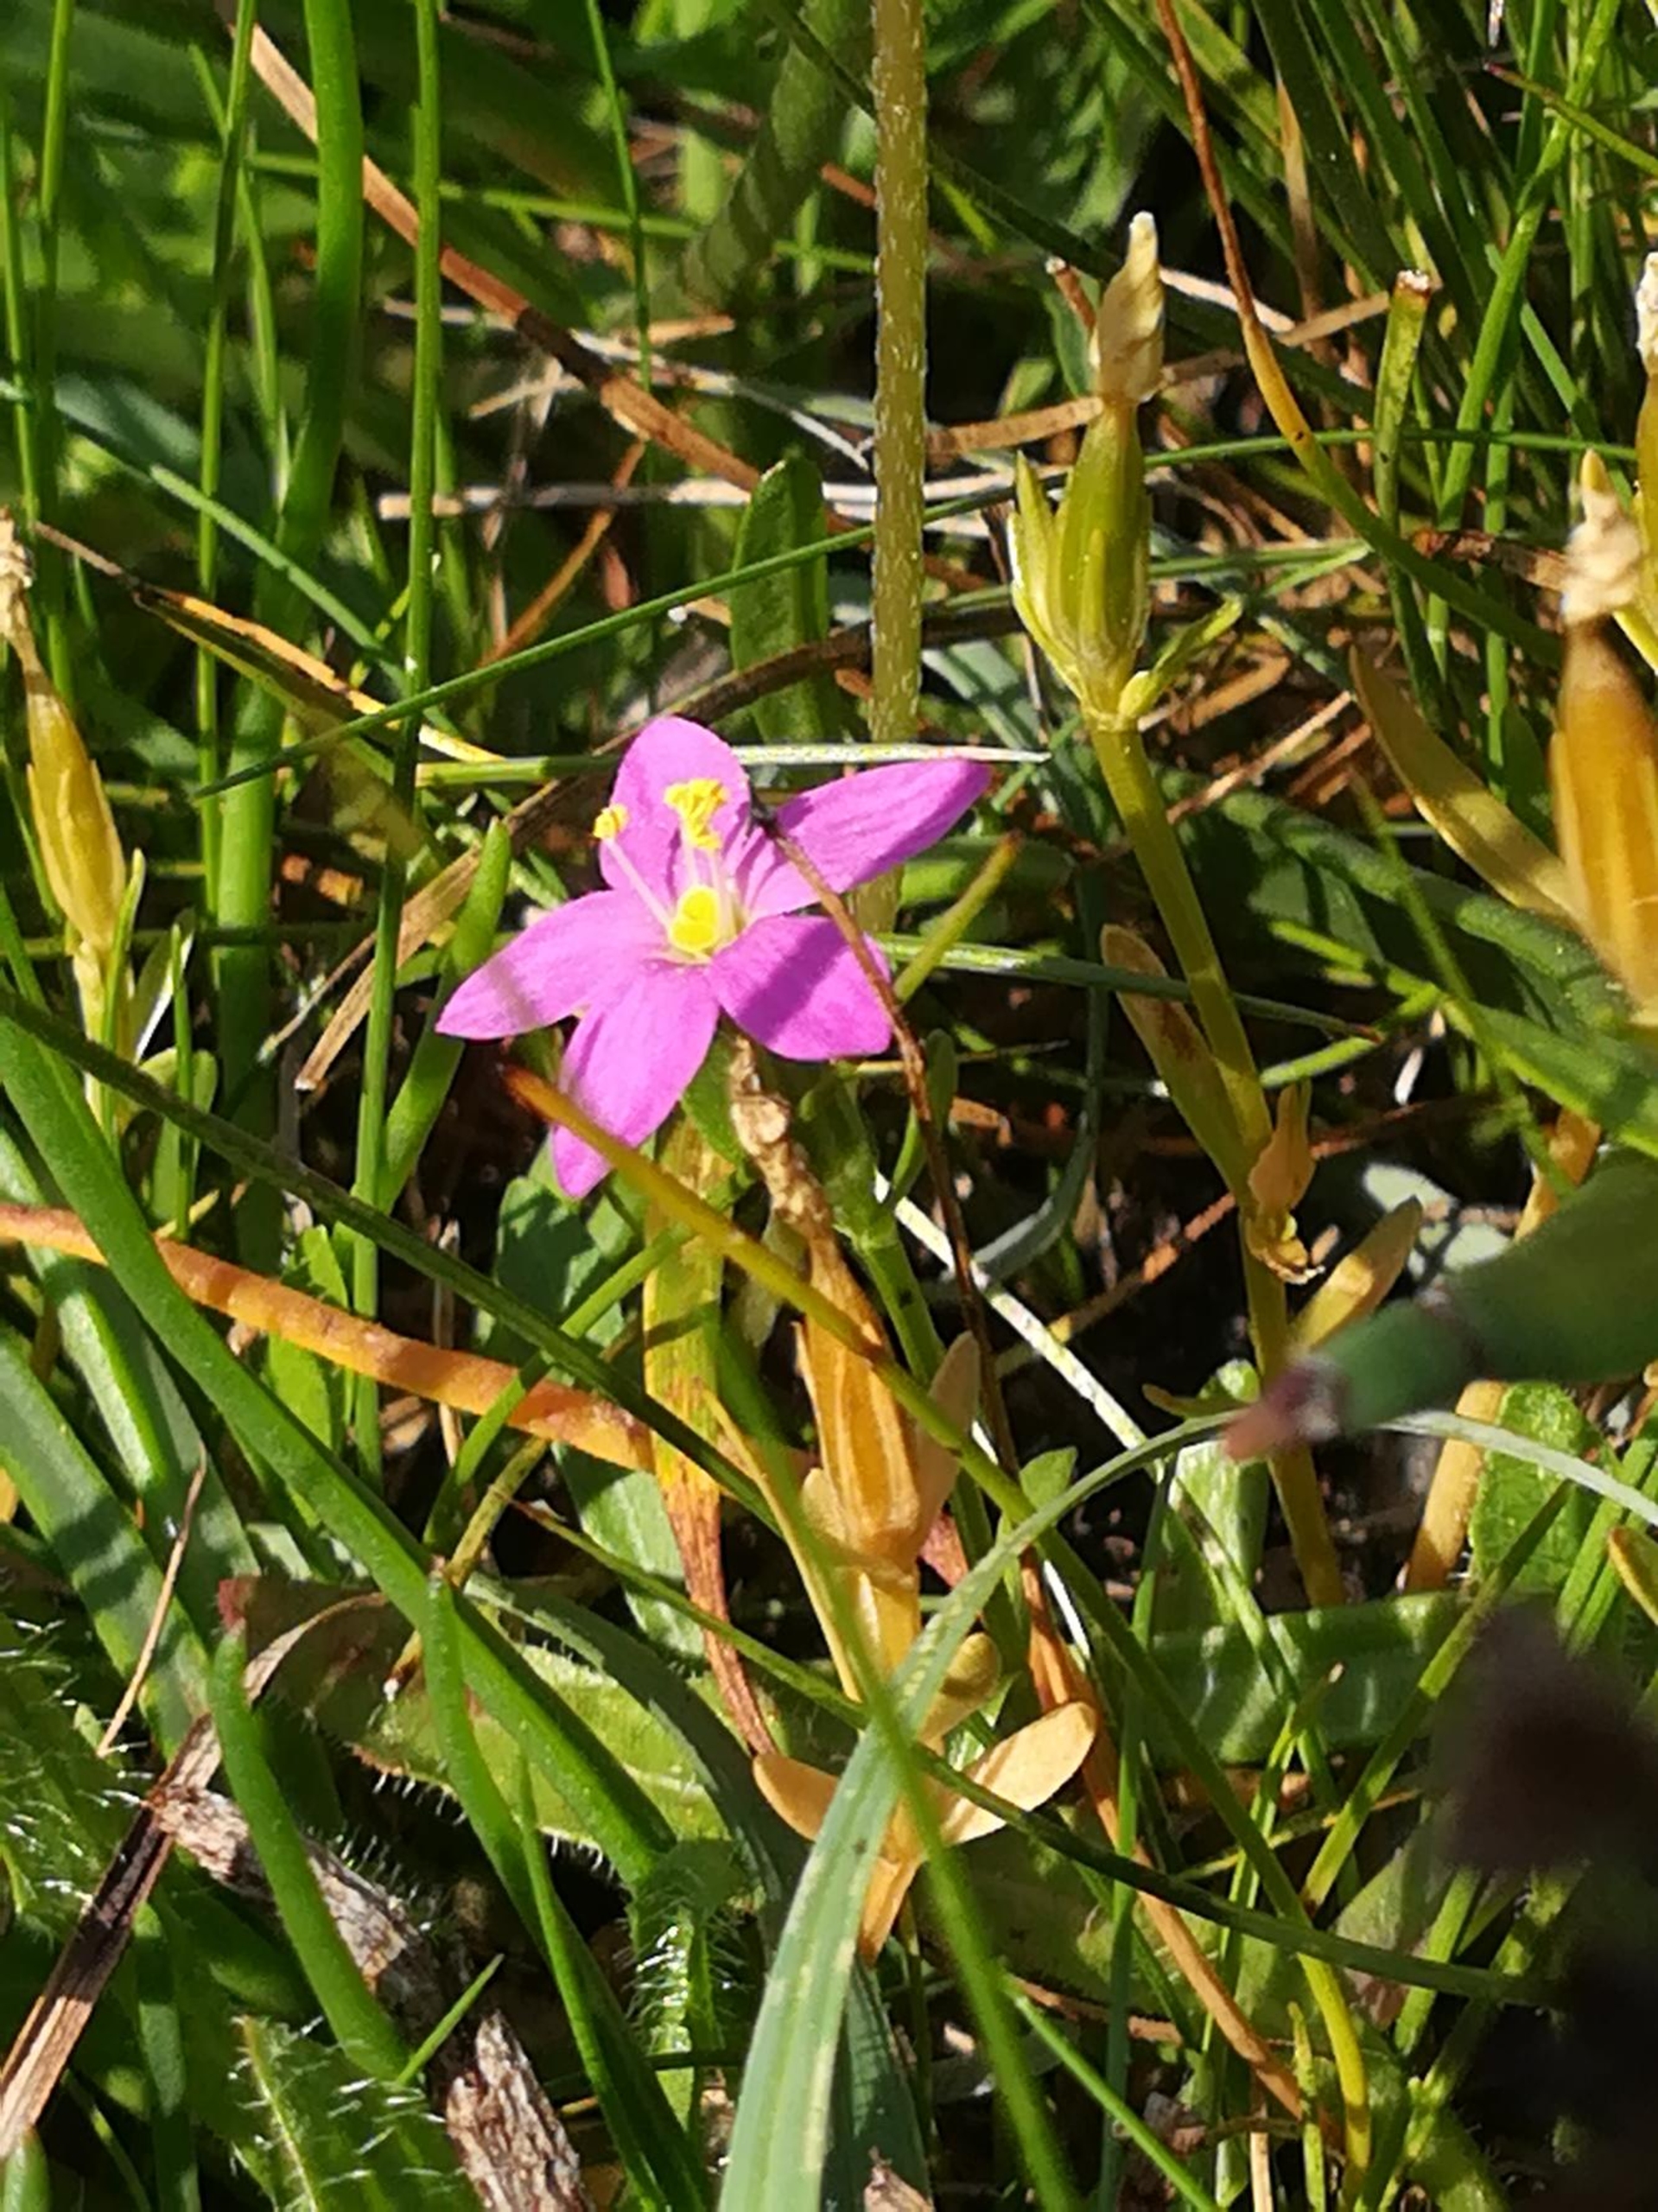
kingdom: Plantae
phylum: Tracheophyta
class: Magnoliopsida
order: Gentianales
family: Gentianaceae
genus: Centaurium
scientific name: Centaurium littorale
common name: Strand-tusindgylden
